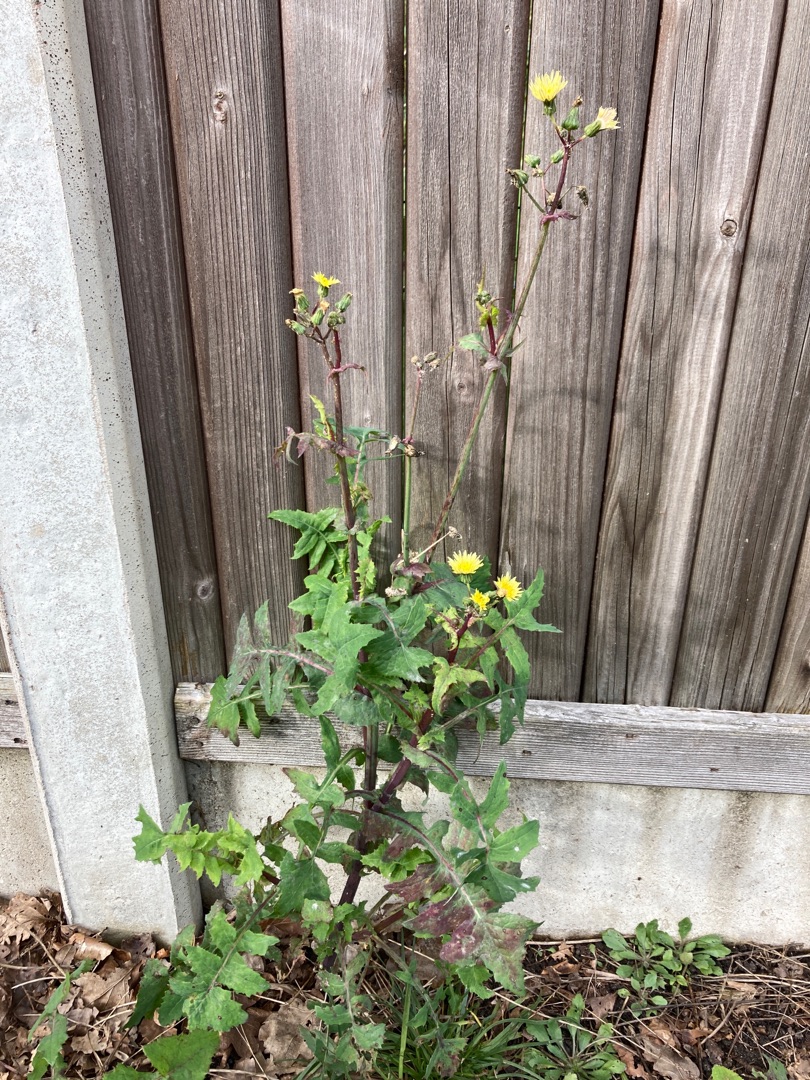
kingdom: Plantae
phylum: Tracheophyta
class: Magnoliopsida
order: Asterales
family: Asteraceae
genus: Sonchus
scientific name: Sonchus oleraceus
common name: Almindelig svinemælk
